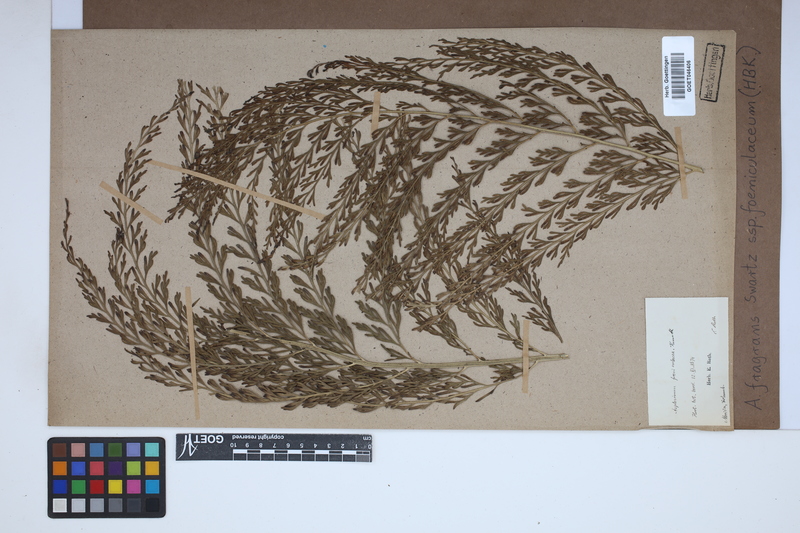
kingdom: Plantae
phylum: Tracheophyta
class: Polypodiopsida
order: Polypodiales
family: Aspleniaceae
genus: Asplenium
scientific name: Asplenium fragrans
